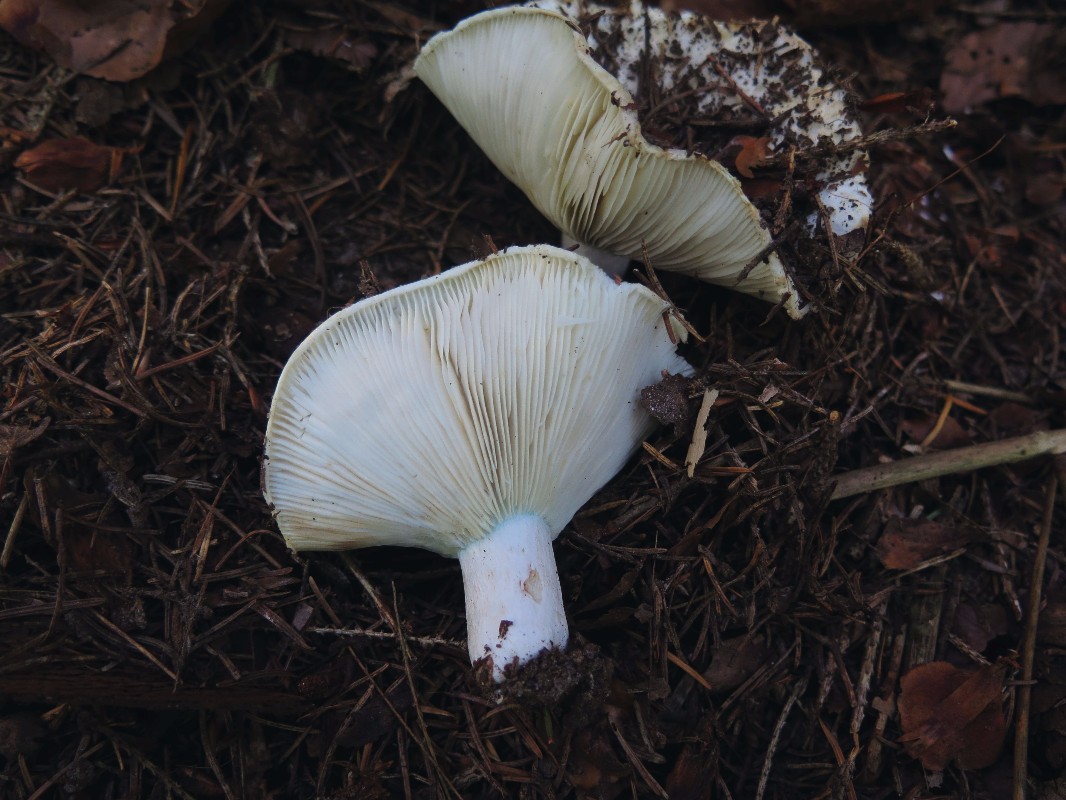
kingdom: Fungi
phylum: Basidiomycota
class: Agaricomycetes
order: Russulales
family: Russulaceae
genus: Russula
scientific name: Russula chloroides
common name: grønhalset tragt-skørhat
